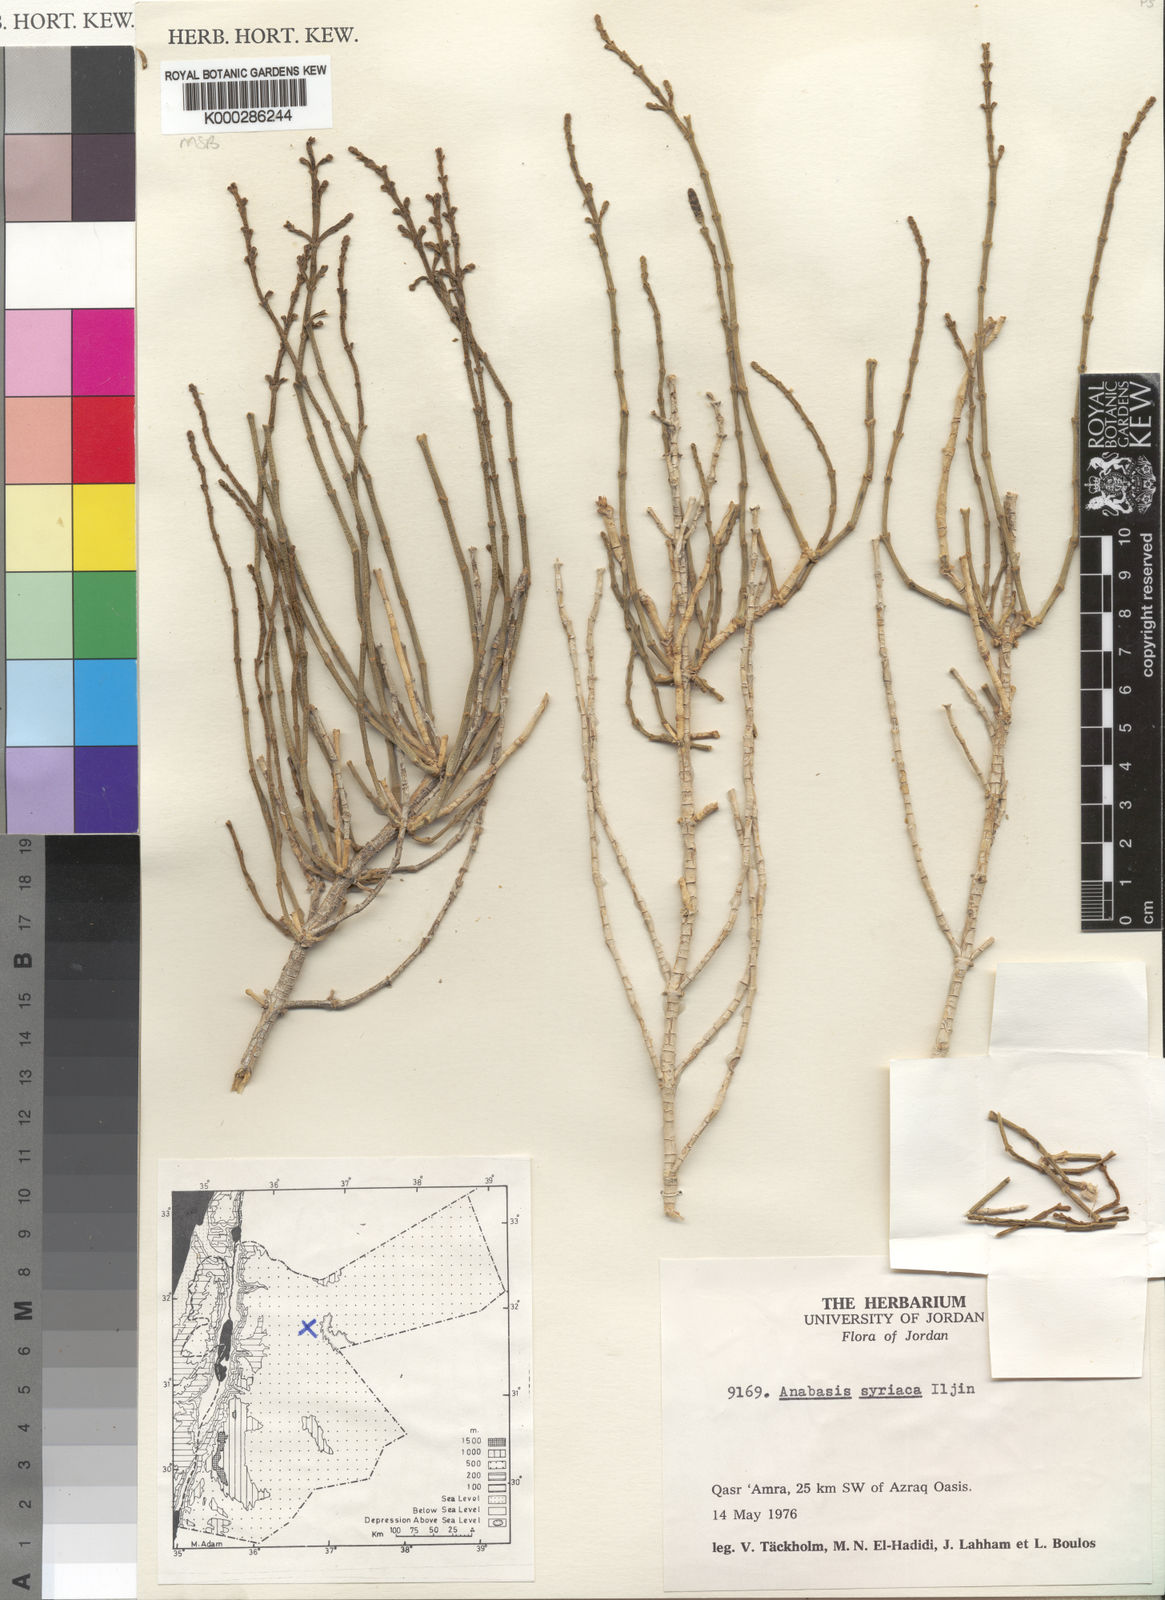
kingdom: Plantae
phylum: Tracheophyta
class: Magnoliopsida
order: Caryophyllales
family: Amaranthaceae
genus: Anabasis
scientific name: Anabasis syriaca
